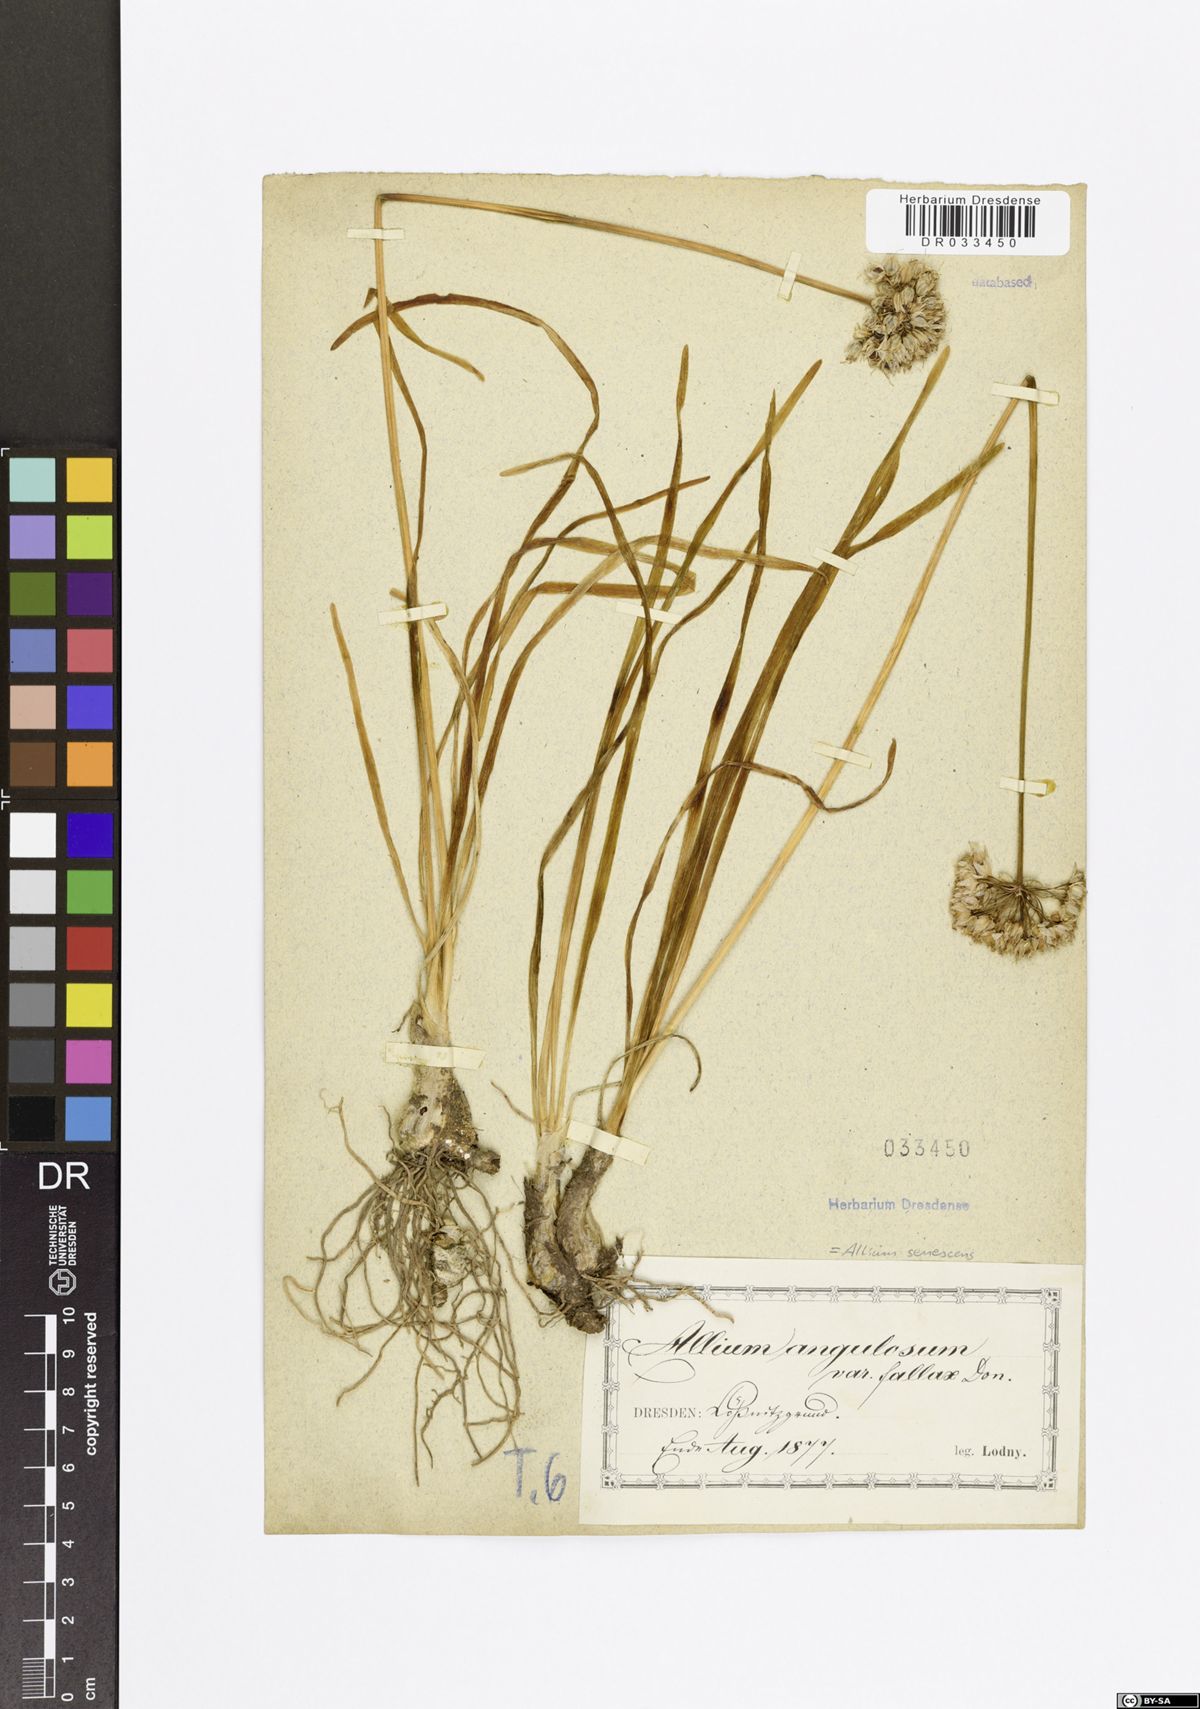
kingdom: Plantae
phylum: Tracheophyta
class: Liliopsida
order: Asparagales
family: Amaryllidaceae
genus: Allium
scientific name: Allium senescens
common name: German garlic
